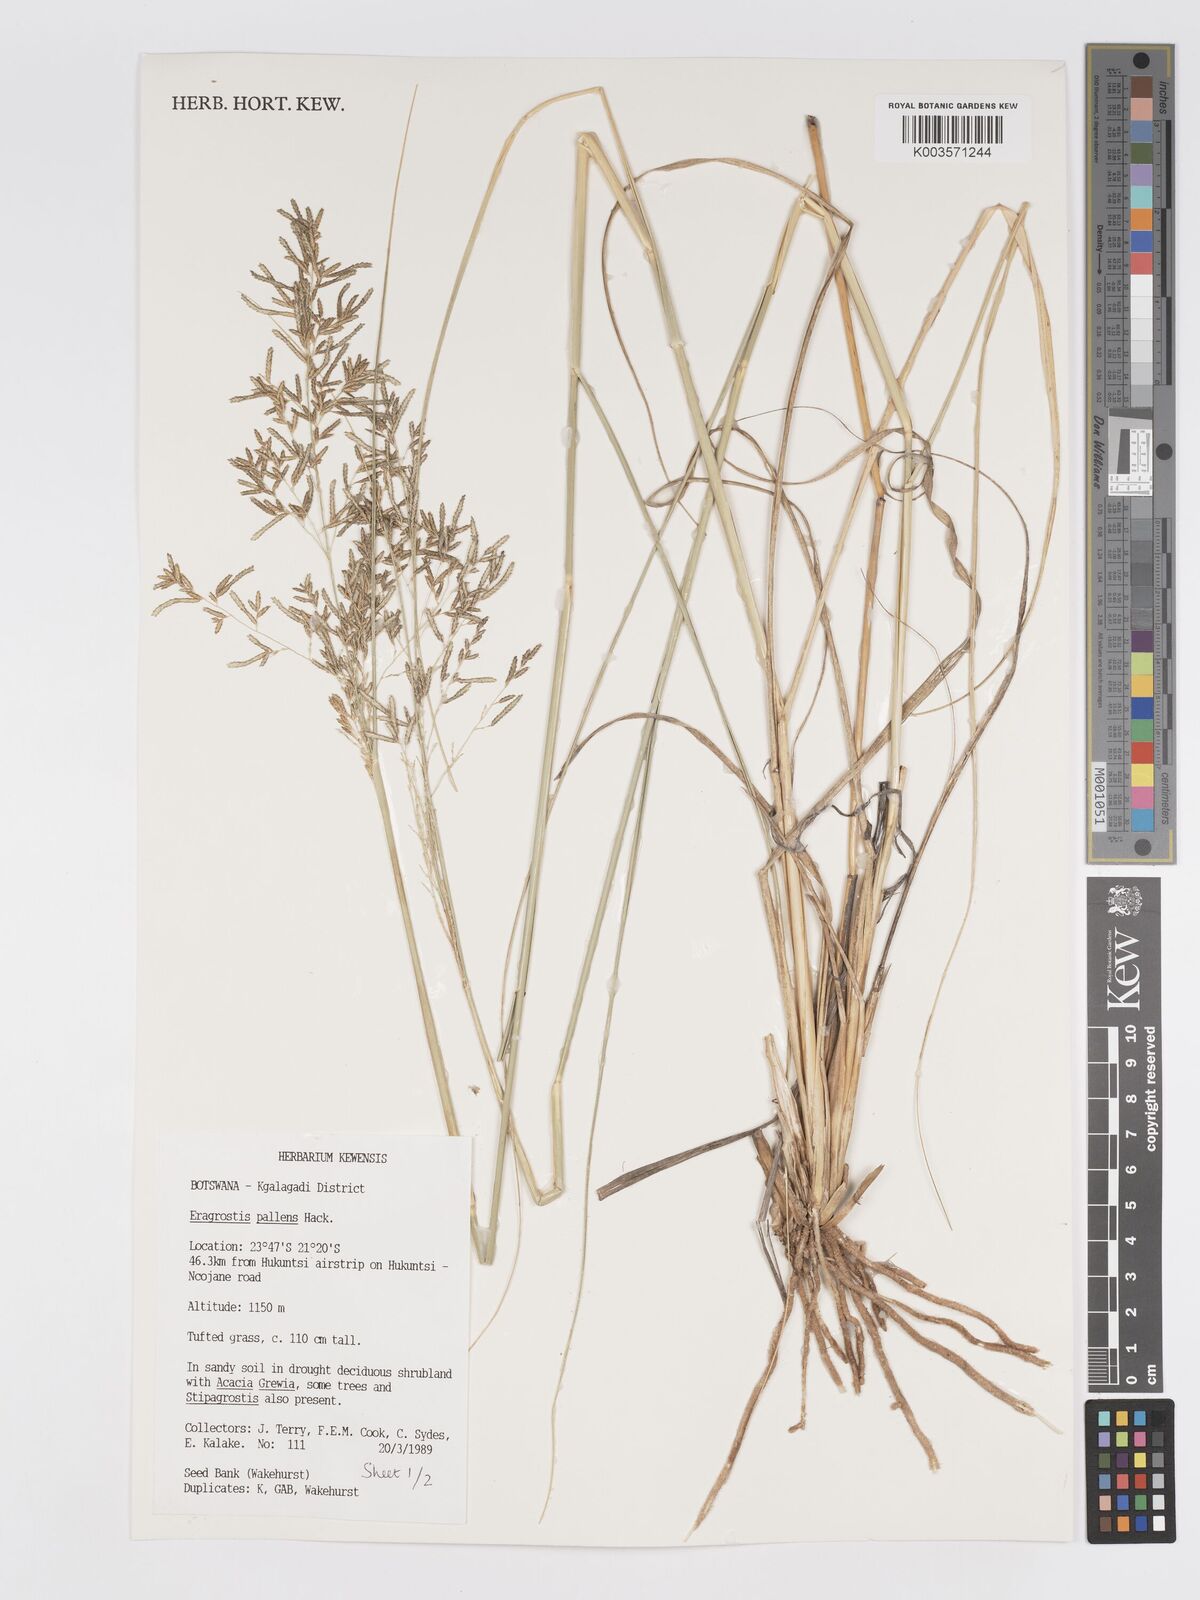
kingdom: Plantae
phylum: Tracheophyta
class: Liliopsida
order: Poales
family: Poaceae
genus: Eragrostis
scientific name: Eragrostis pallens
